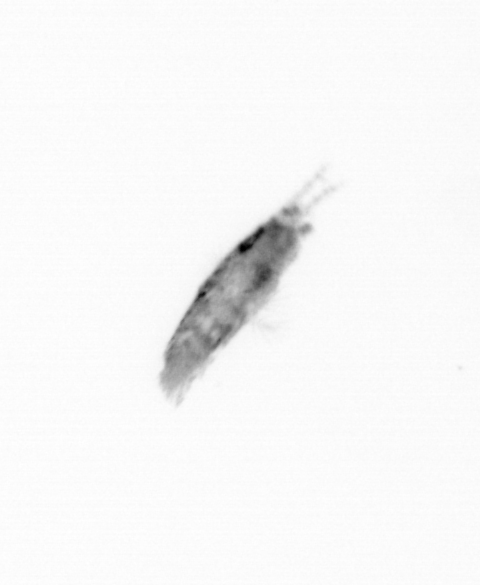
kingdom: Animalia
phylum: Annelida
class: Polychaeta
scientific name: Polychaeta
